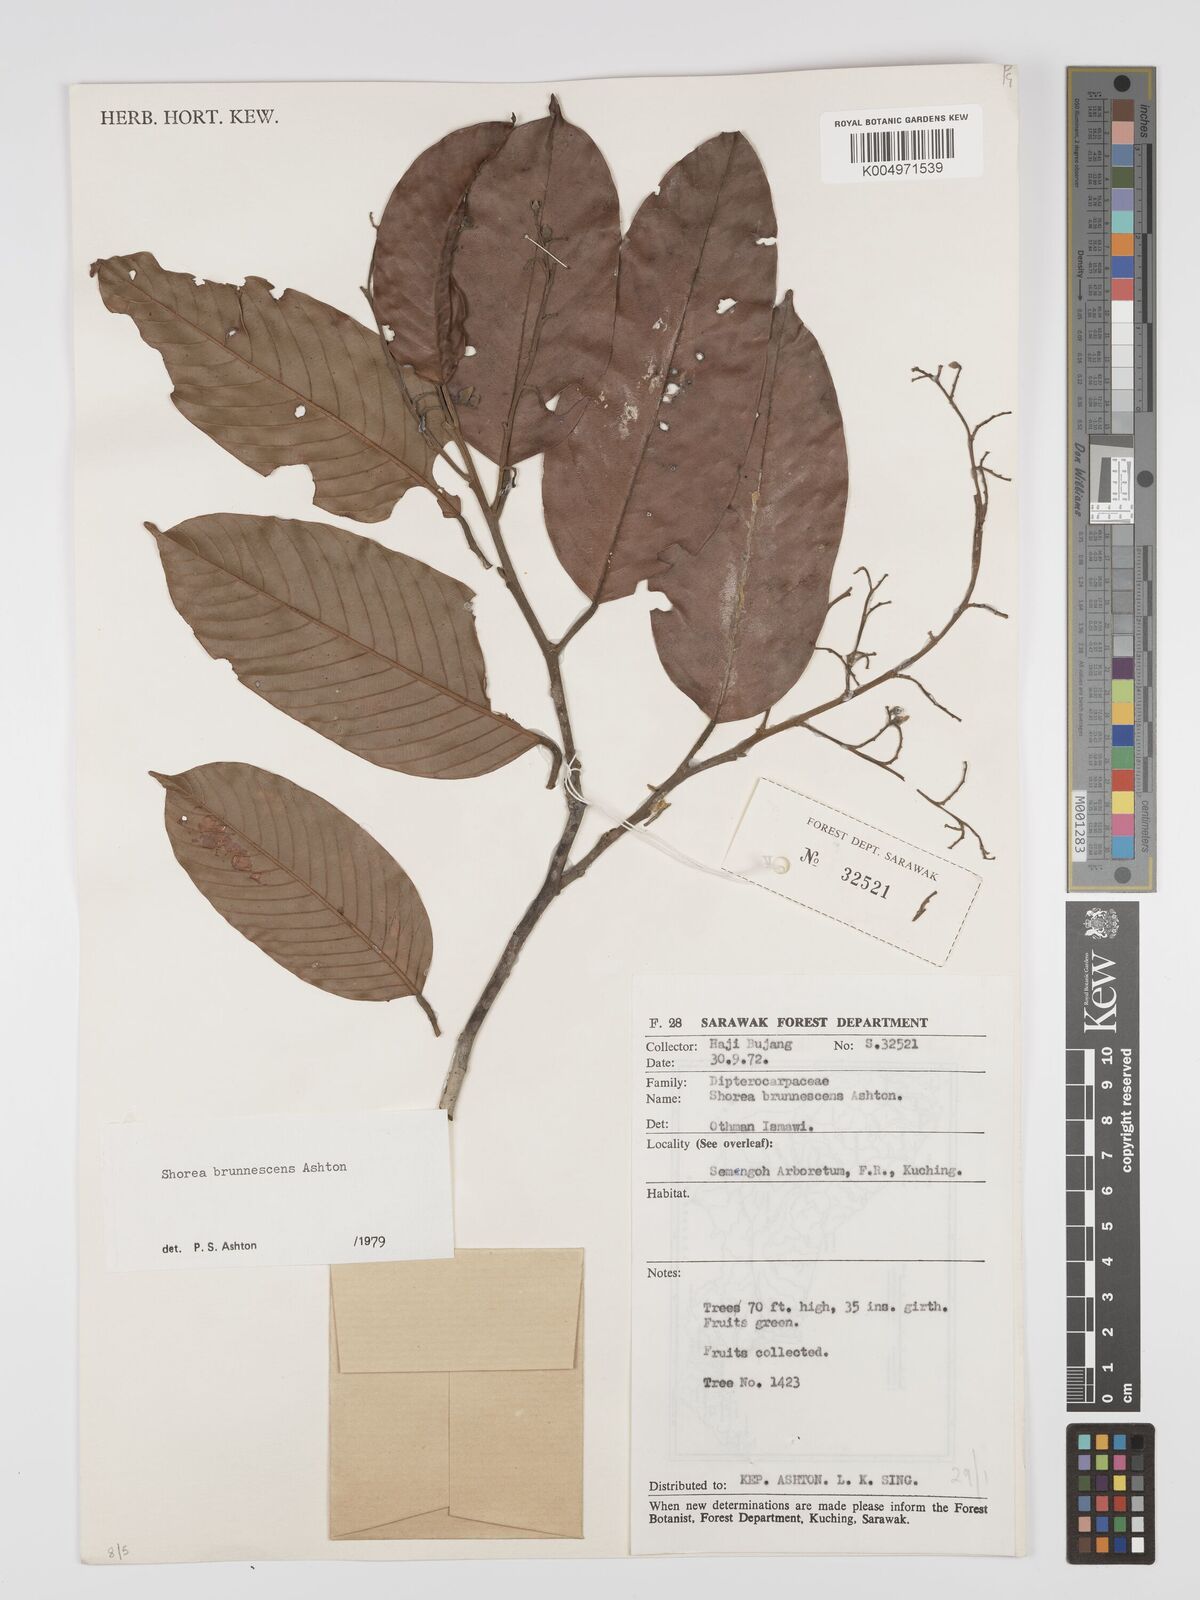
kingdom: Plantae
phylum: Tracheophyta
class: Magnoliopsida
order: Malvales
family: Dipterocarpaceae
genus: Shorea
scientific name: Shorea brunnescens
